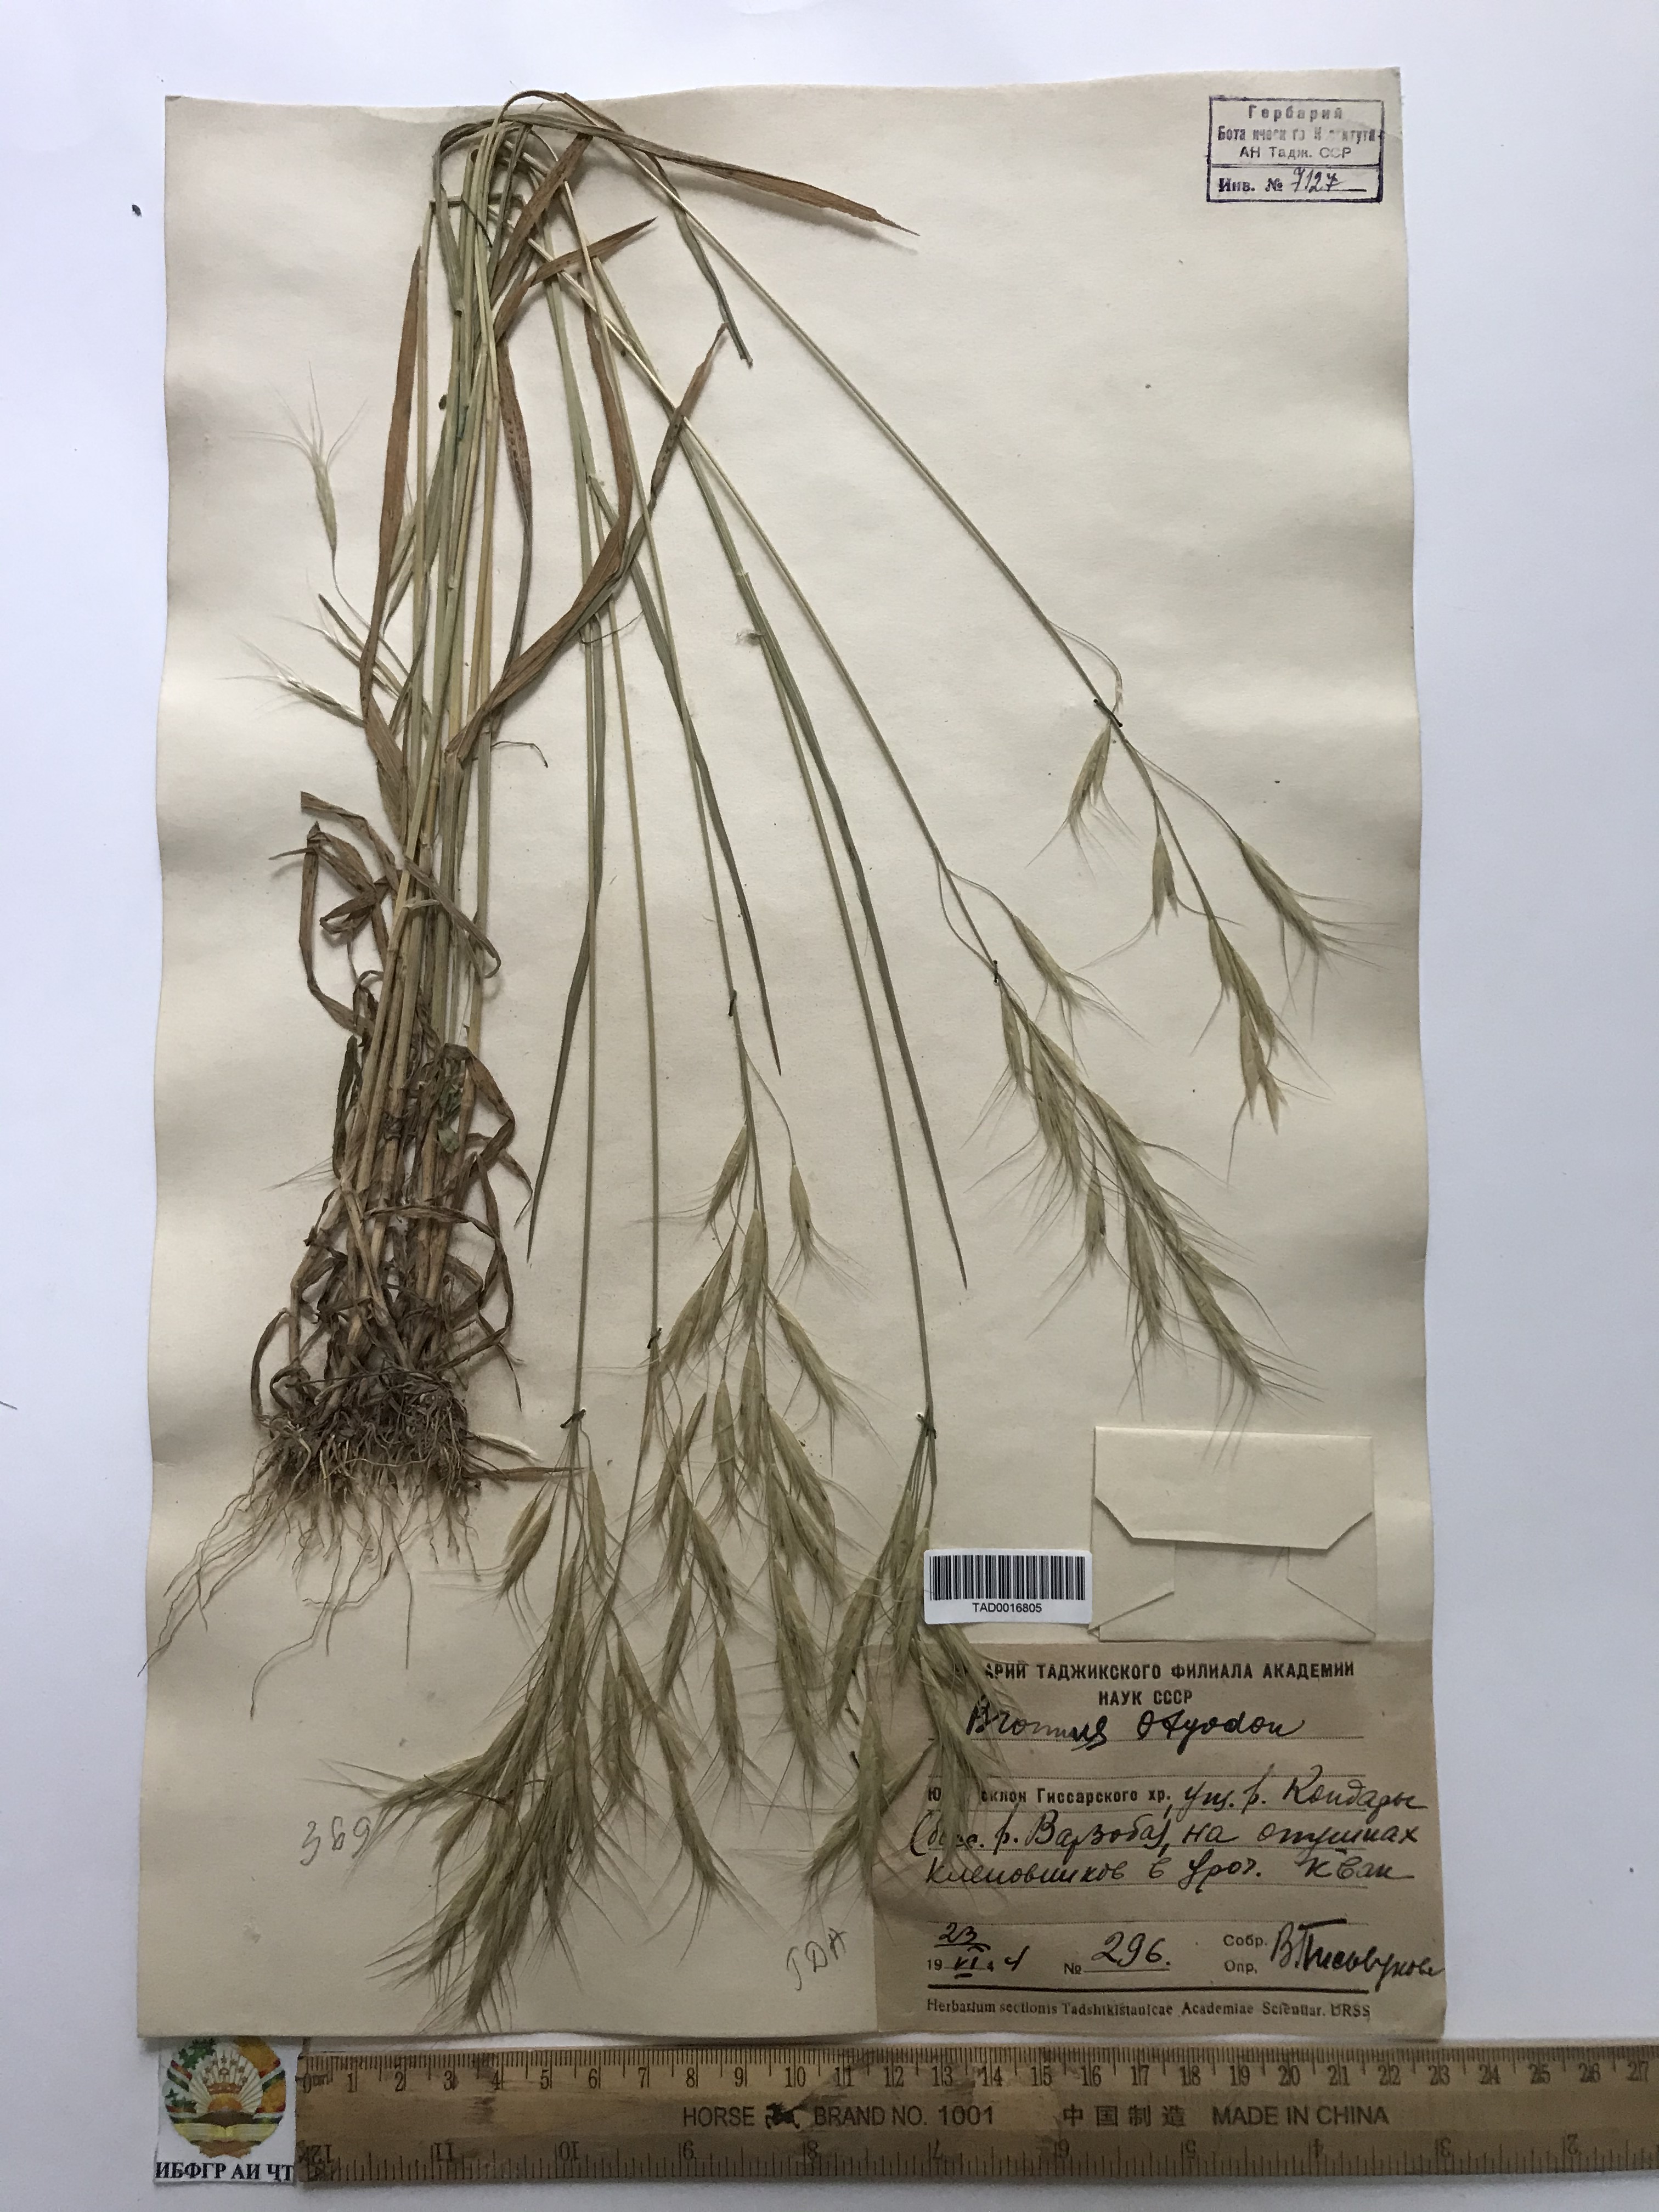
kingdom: Plantae
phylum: Tracheophyta
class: Liliopsida
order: Poales
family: Poaceae
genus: Bromus
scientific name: Bromus oxyodon
